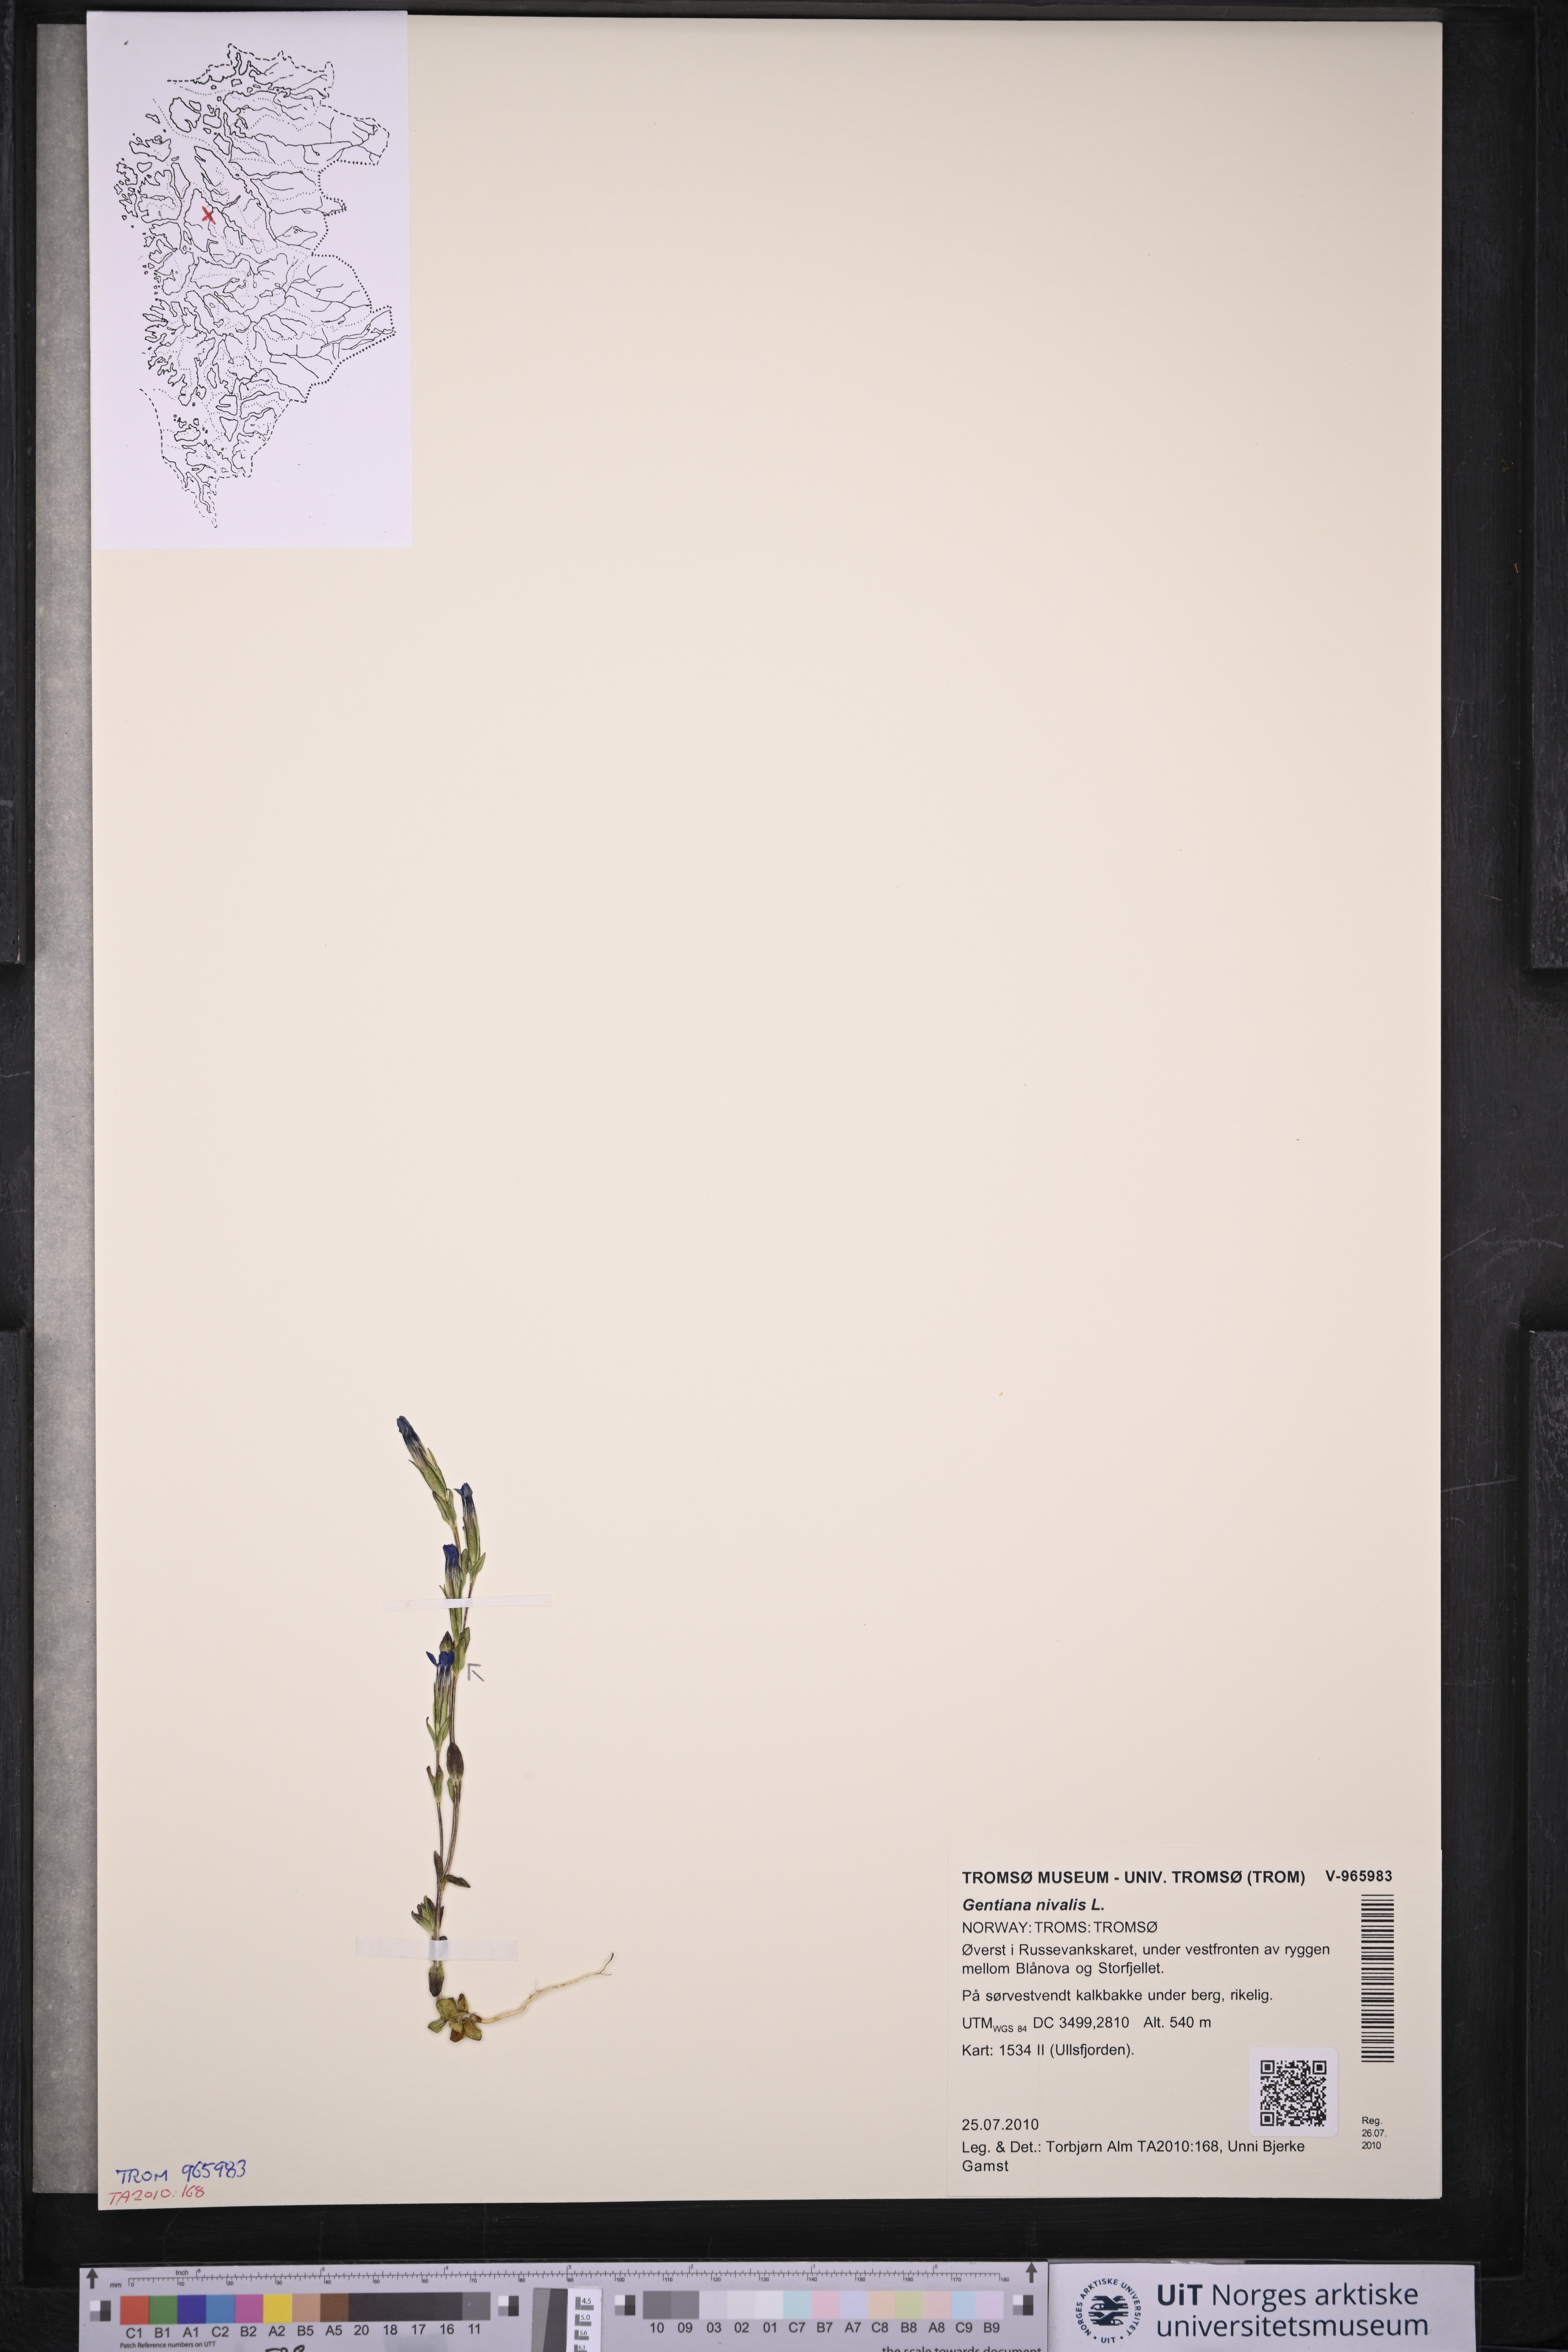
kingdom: Plantae
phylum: Tracheophyta
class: Magnoliopsida
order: Gentianales
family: Gentianaceae
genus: Gentiana
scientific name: Gentiana nivalis
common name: Alpine gentian
